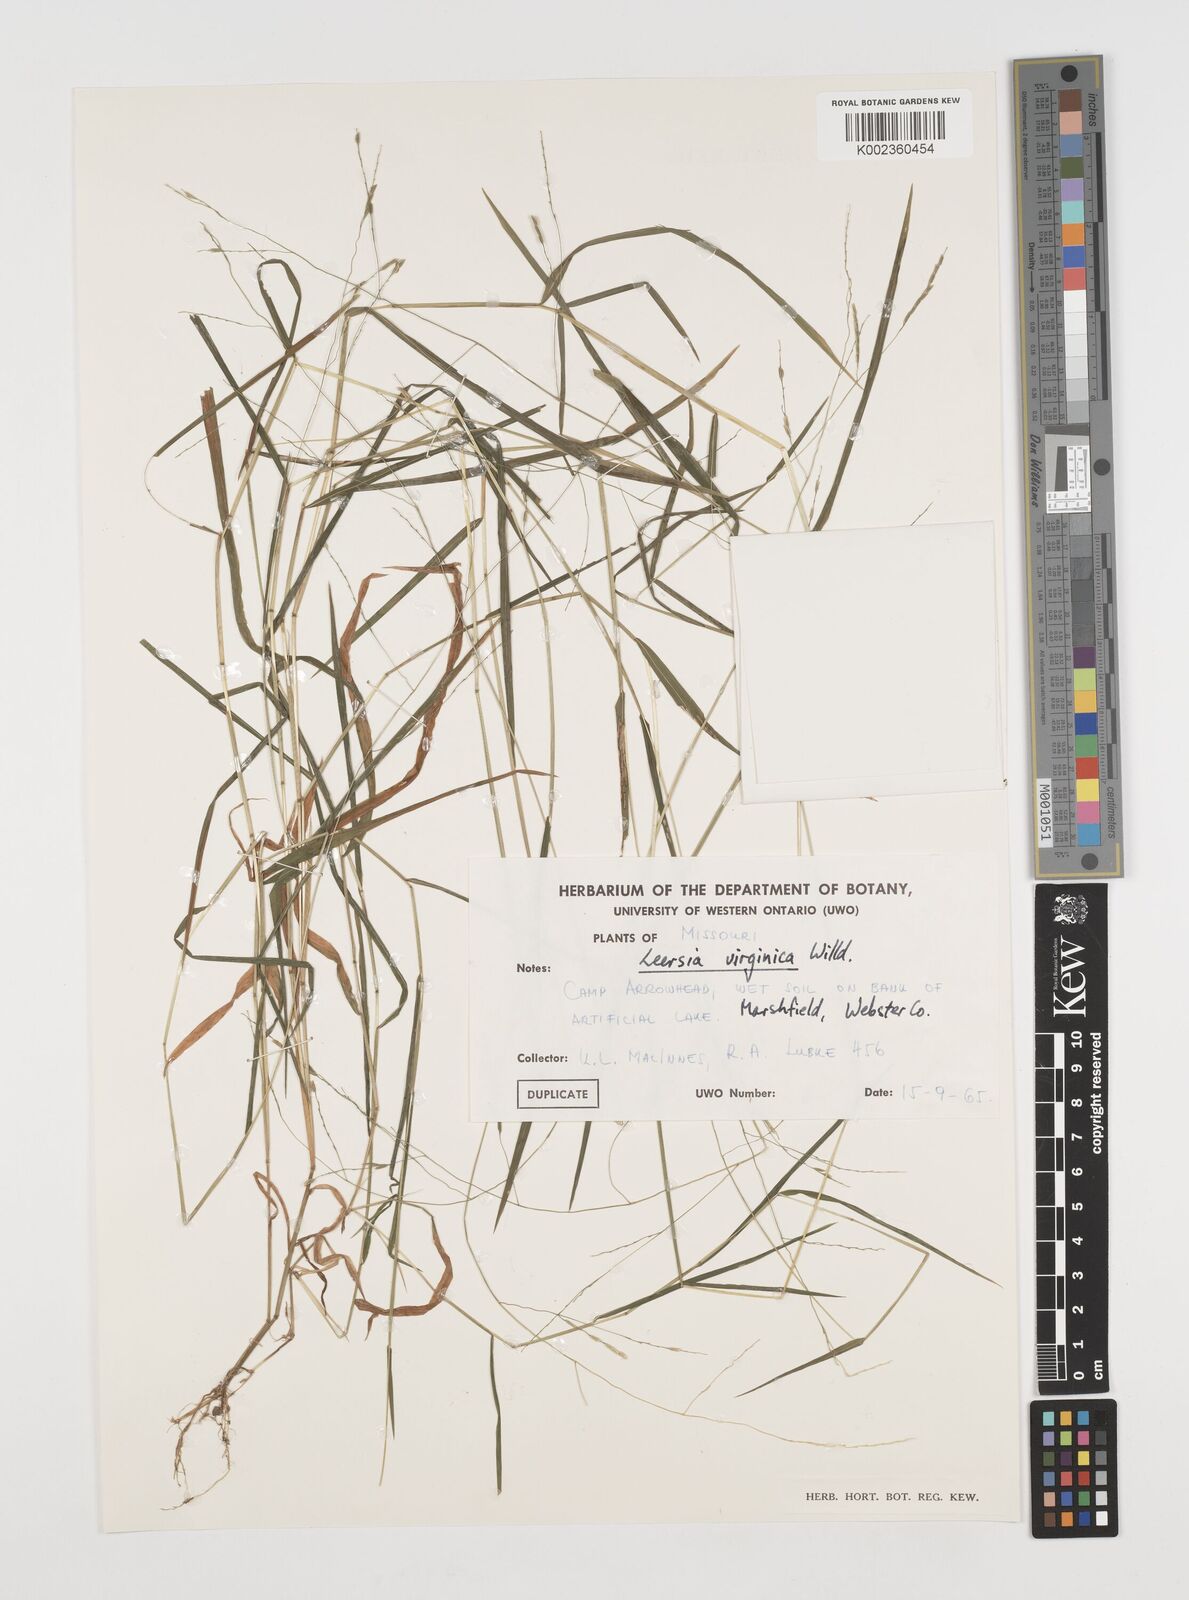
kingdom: Plantae
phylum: Tracheophyta
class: Liliopsida
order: Poales
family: Poaceae
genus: Leersia
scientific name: Leersia virginica
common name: White cutgrass
